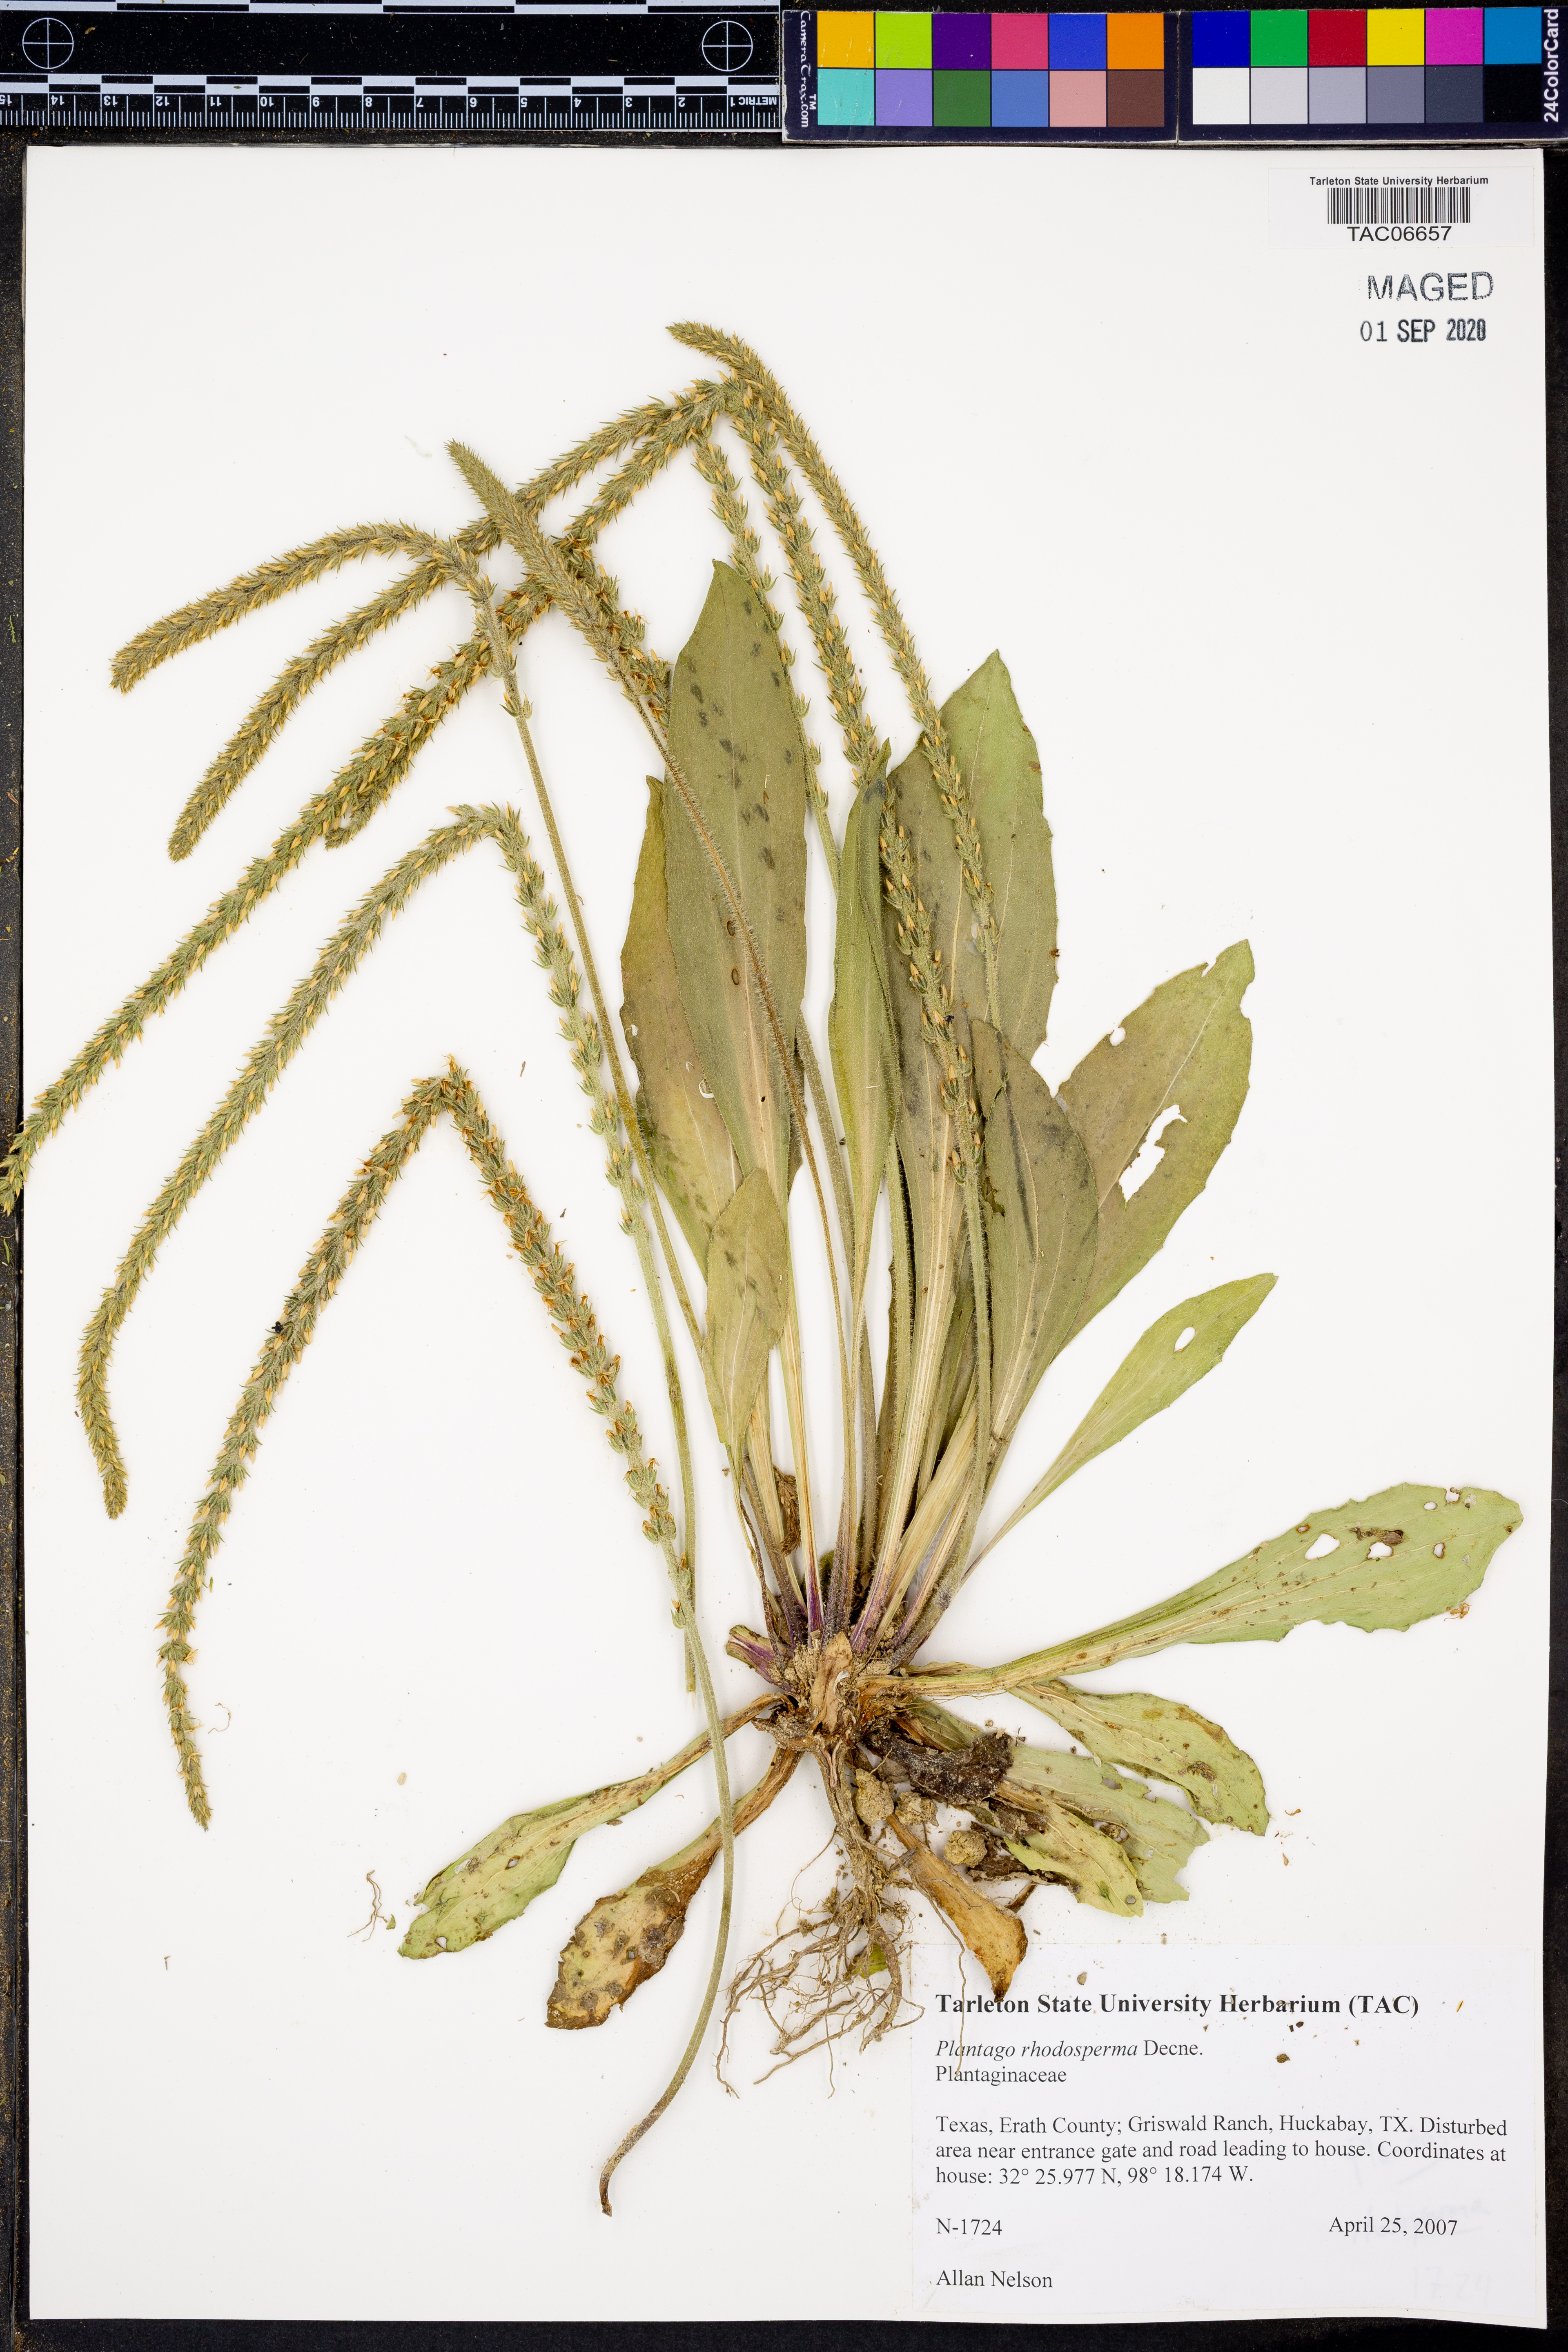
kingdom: Plantae
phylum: Tracheophyta
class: Magnoliopsida
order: Lamiales
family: Plantaginaceae
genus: Plantago
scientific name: Plantago rhodosperma
